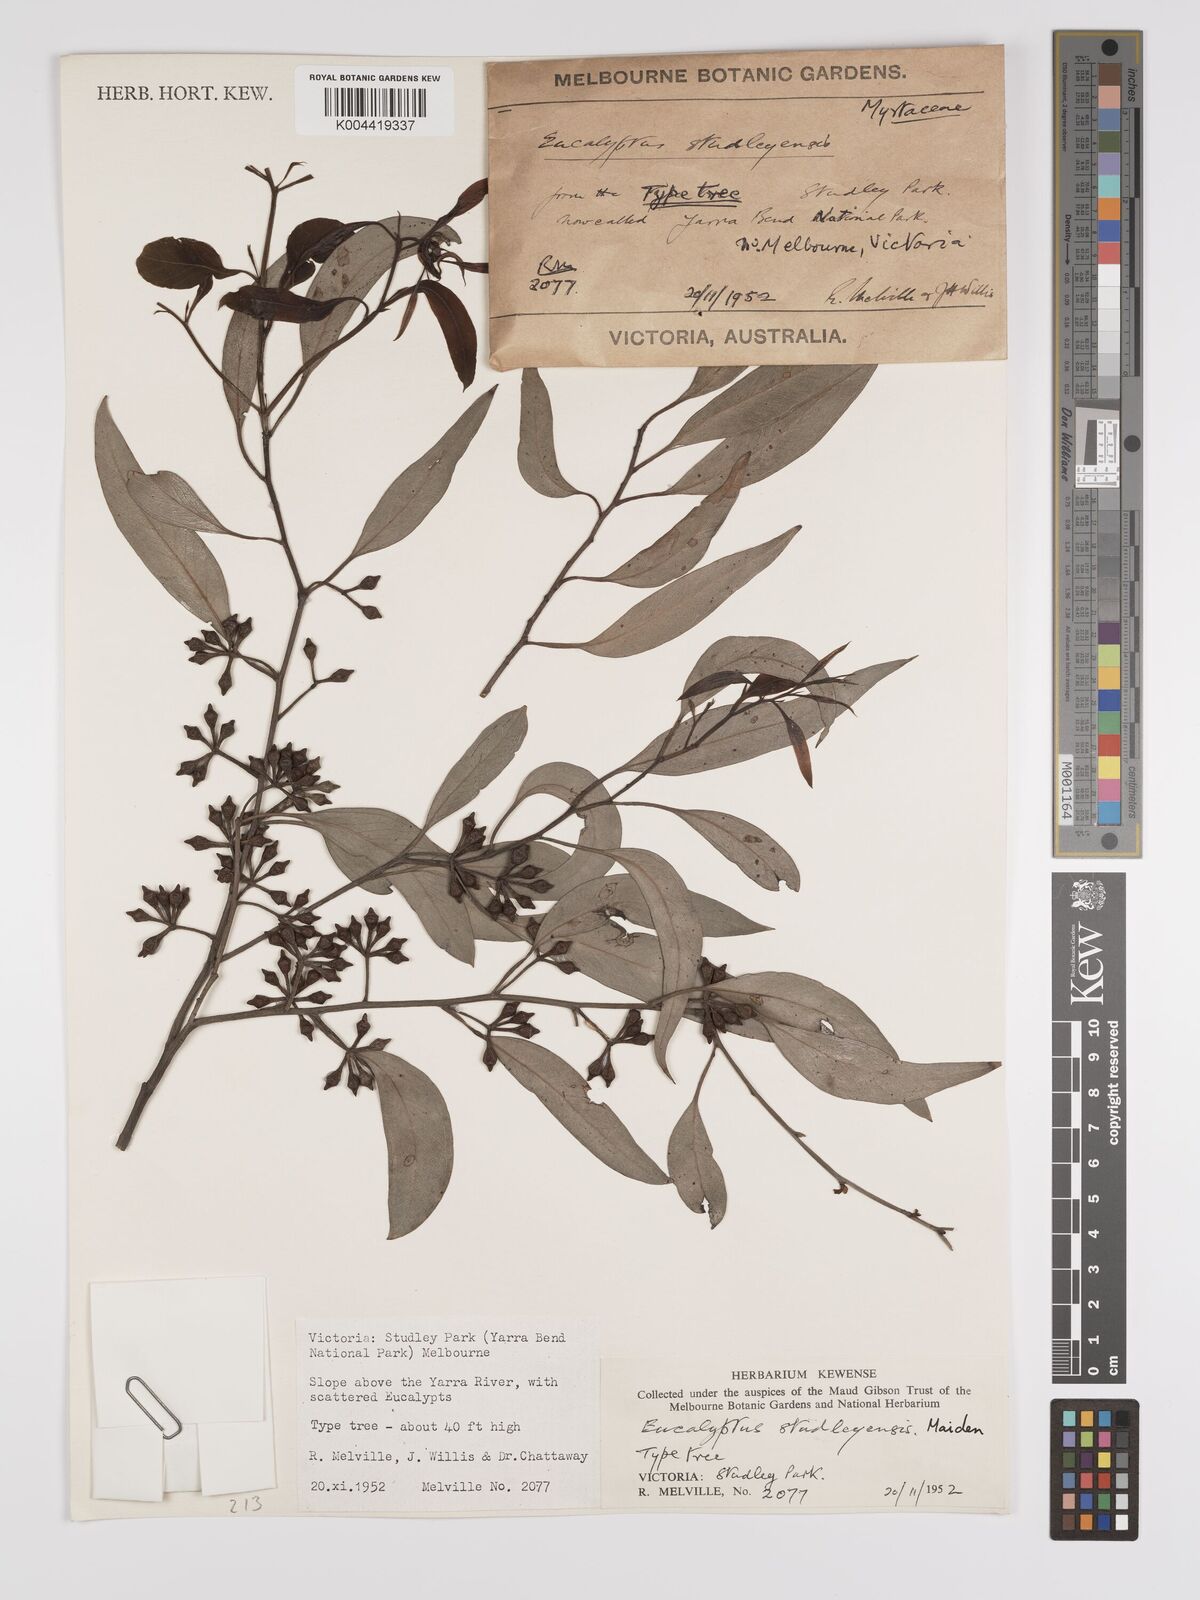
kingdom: Plantae
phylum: Tracheophyta
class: Magnoliopsida
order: Myrtales
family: Myrtaceae
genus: Eucalyptus
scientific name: Eucalyptus studleyensis
